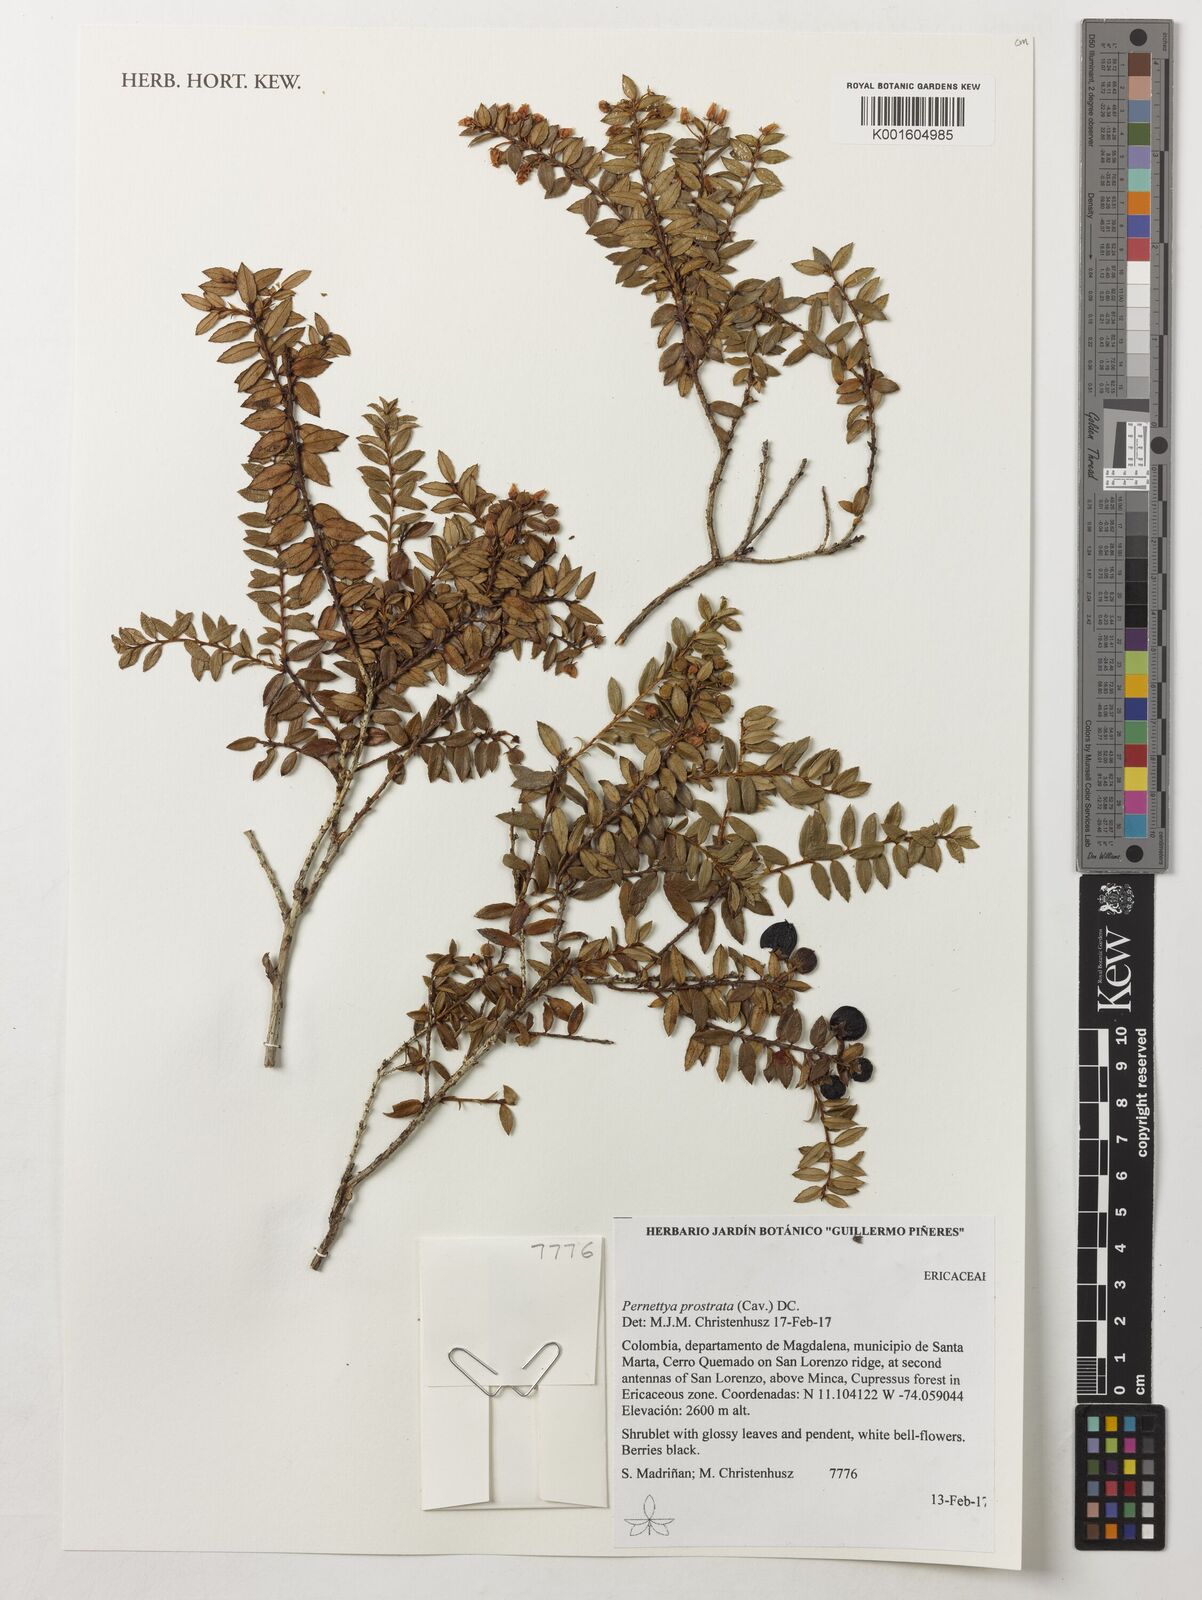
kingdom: Plantae
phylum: Tracheophyta
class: Magnoliopsida
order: Ericales
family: Ericaceae
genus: Gaultheria
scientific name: Gaultheria myrsinoides
